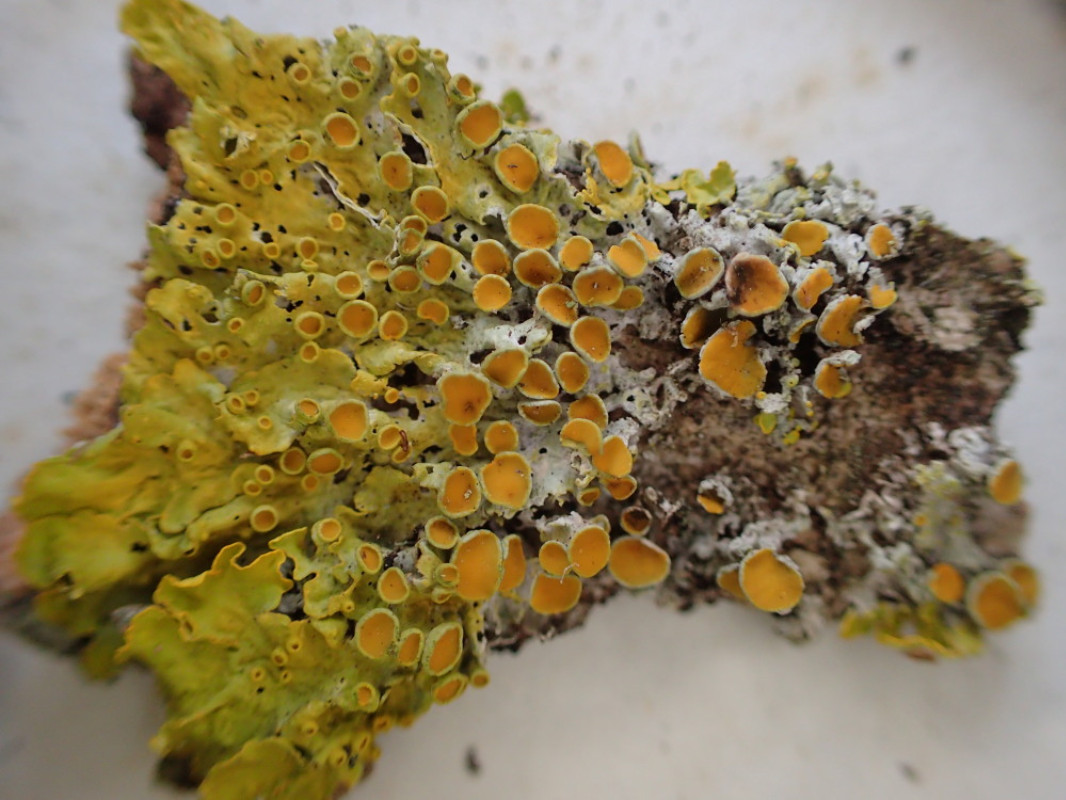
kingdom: Fungi
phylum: Ascomycota
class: Lecanoromycetes
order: Teloschistales
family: Teloschistaceae
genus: Xanthoria
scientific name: Xanthoria parietina
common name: almindelig væggelav
